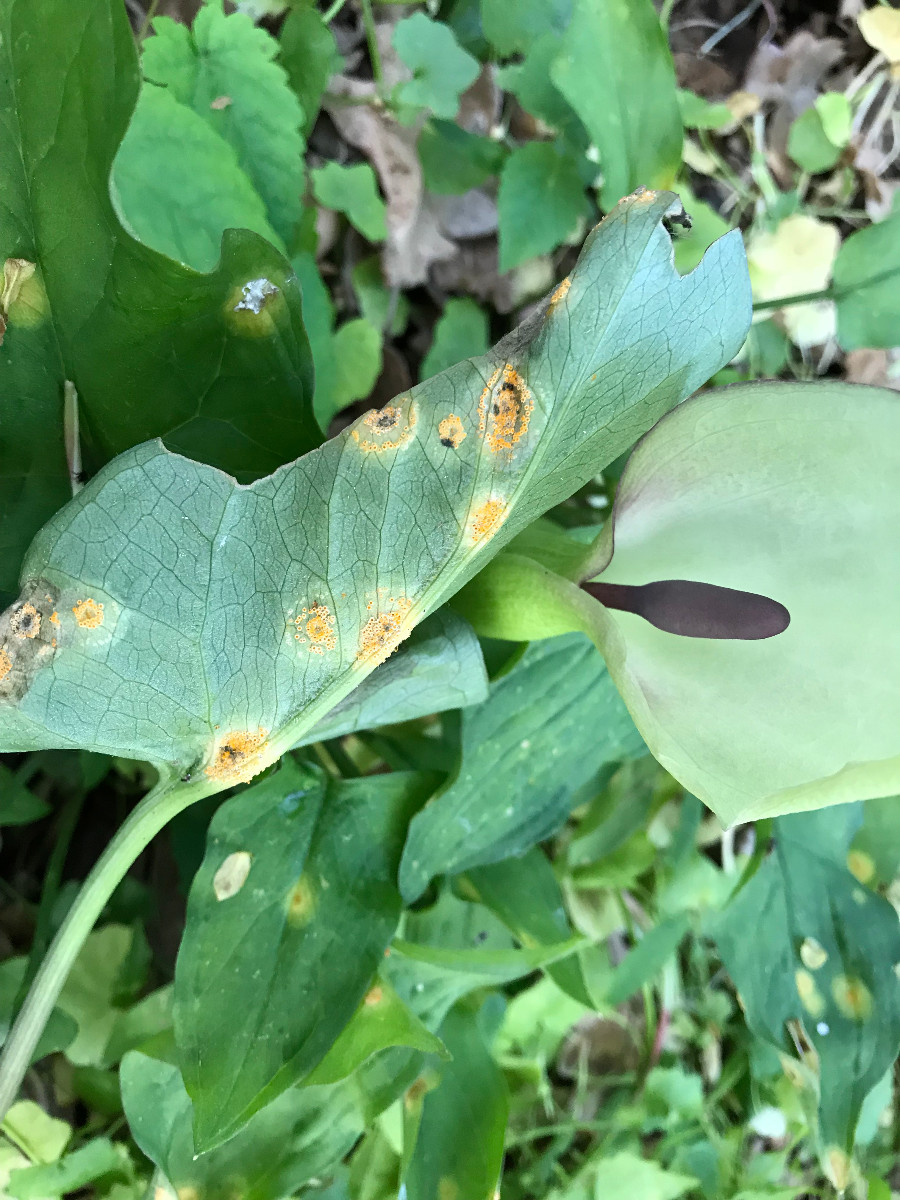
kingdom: Fungi
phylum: Basidiomycota
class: Pucciniomycetes
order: Pucciniales
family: Pucciniaceae
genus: Puccinia
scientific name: Puccinia sessilis
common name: Arum rust
